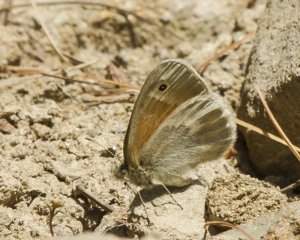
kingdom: Animalia
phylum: Arthropoda
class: Insecta
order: Lepidoptera
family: Nymphalidae
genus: Coenonympha
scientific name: Coenonympha tullia
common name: Large Heath
